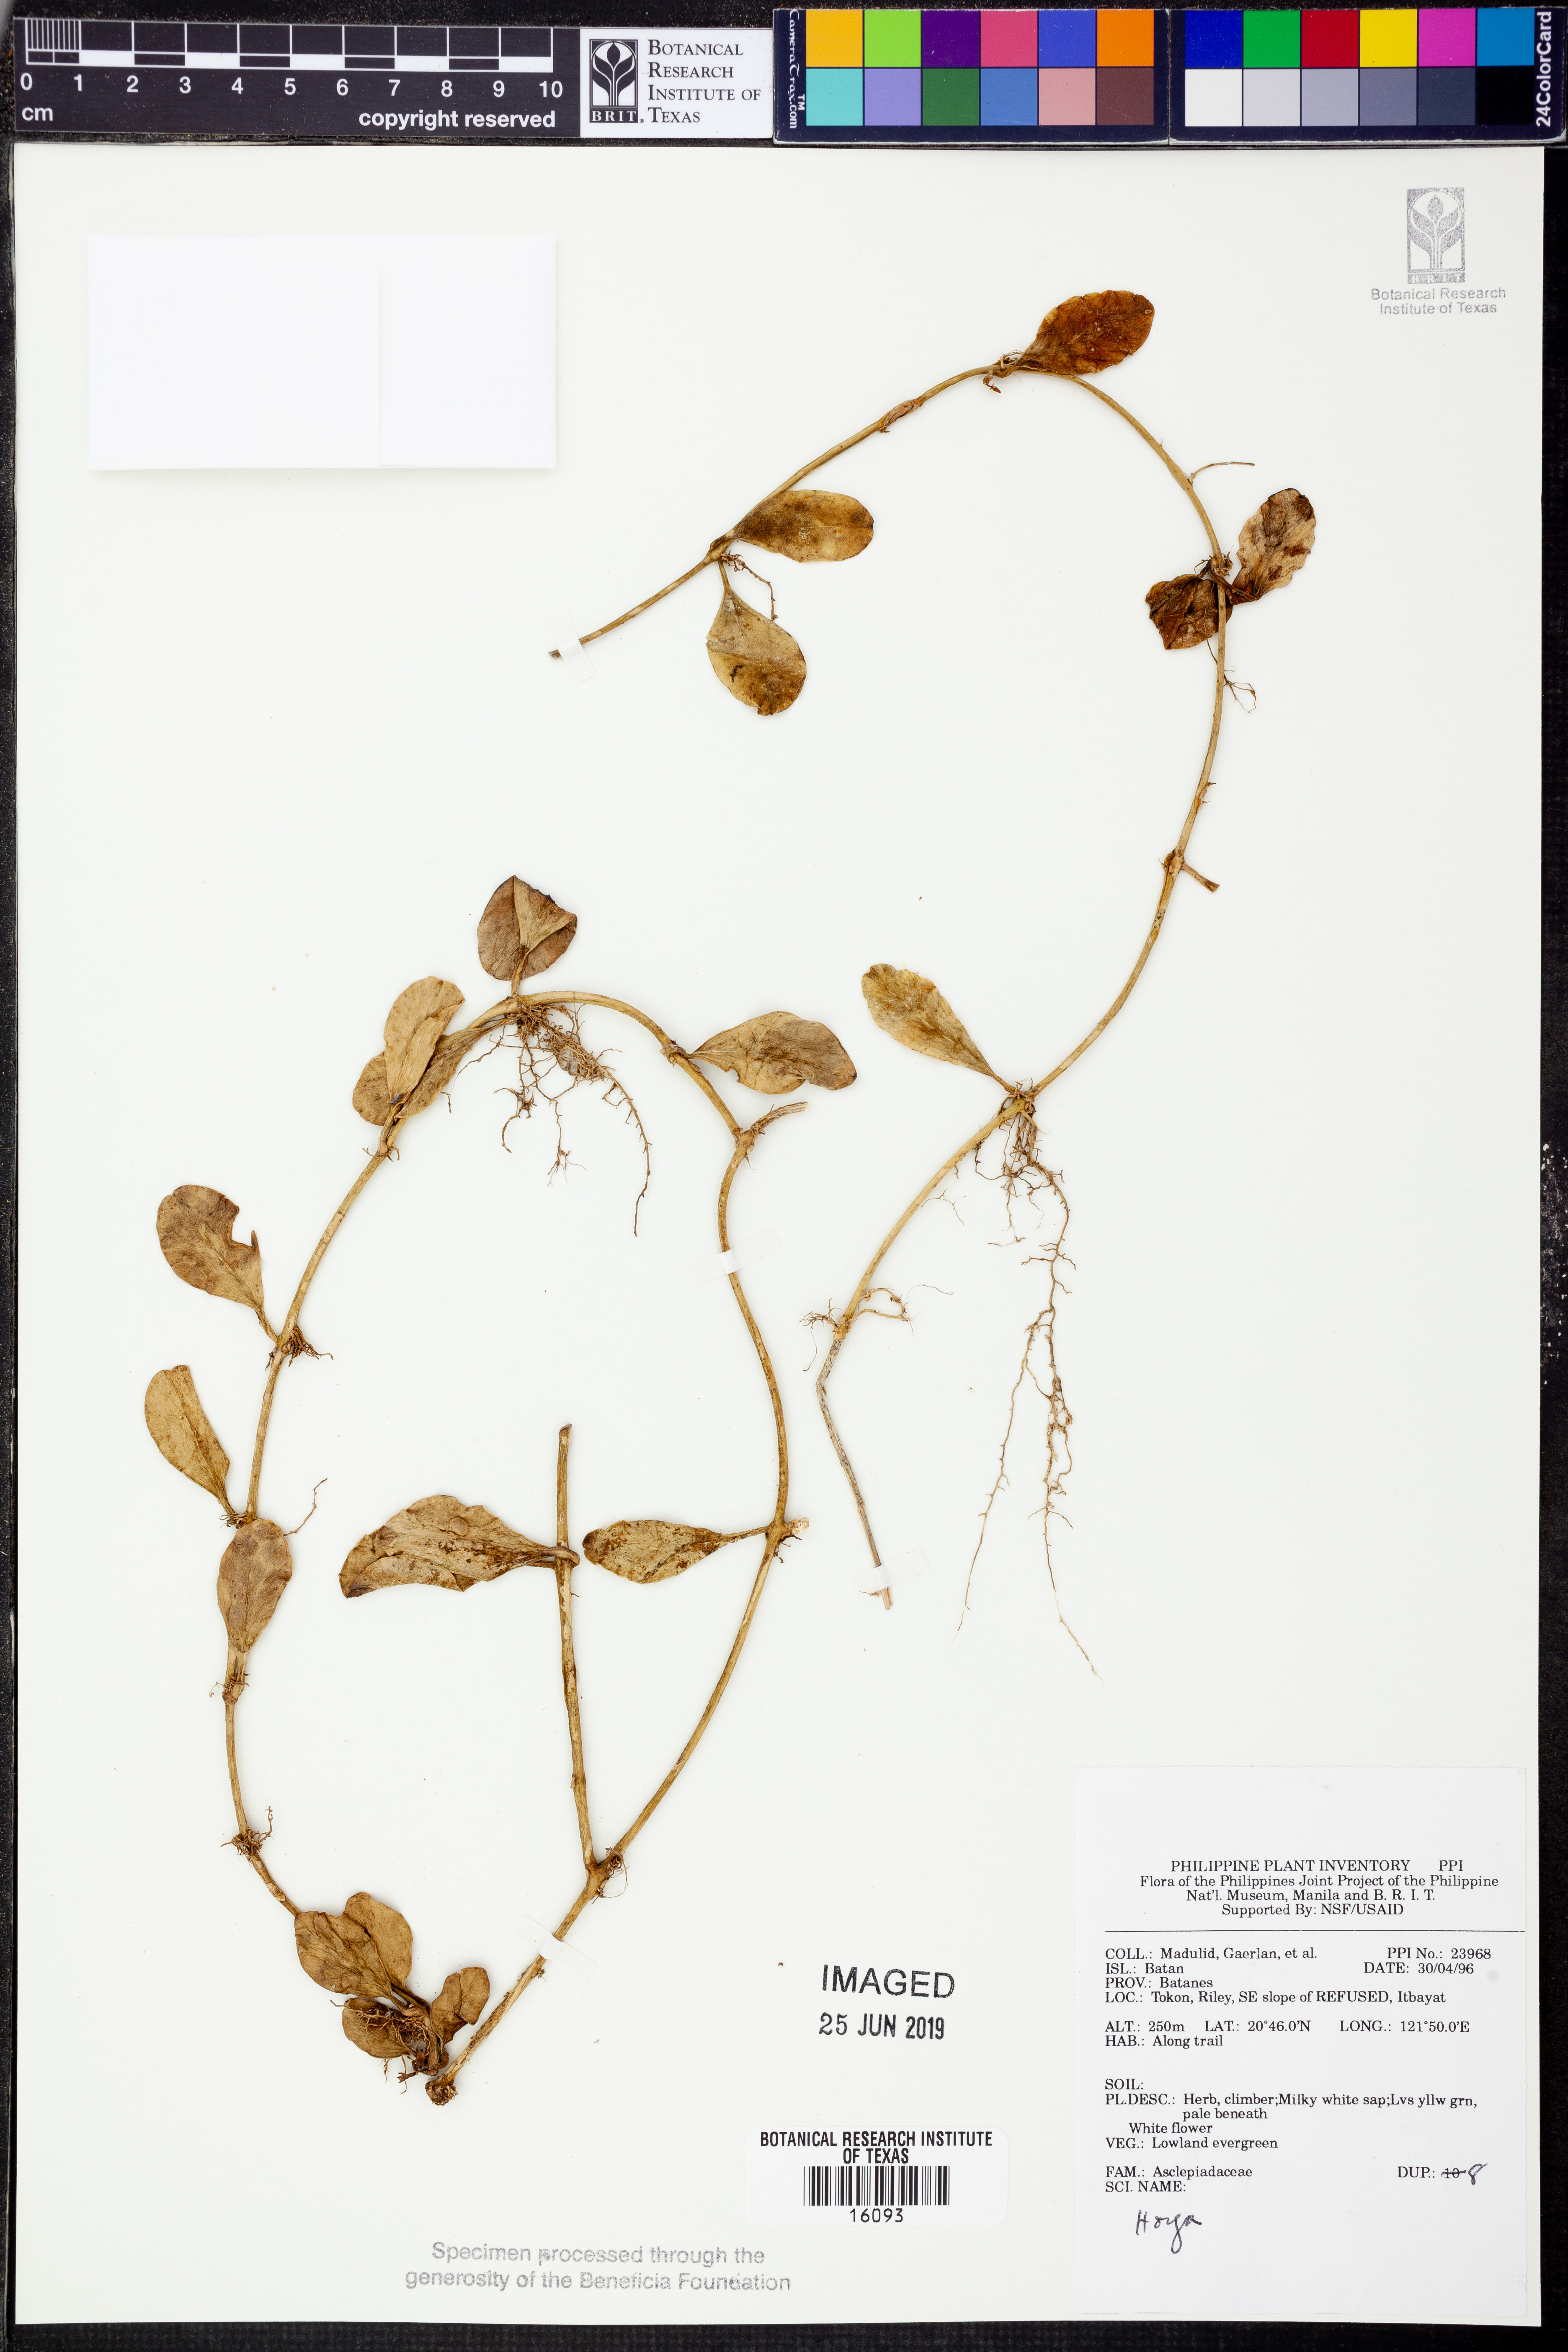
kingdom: Plantae
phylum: Tracheophyta
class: Magnoliopsida
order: Gentianales
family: Apocynaceae
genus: Hoya
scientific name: Hoya
